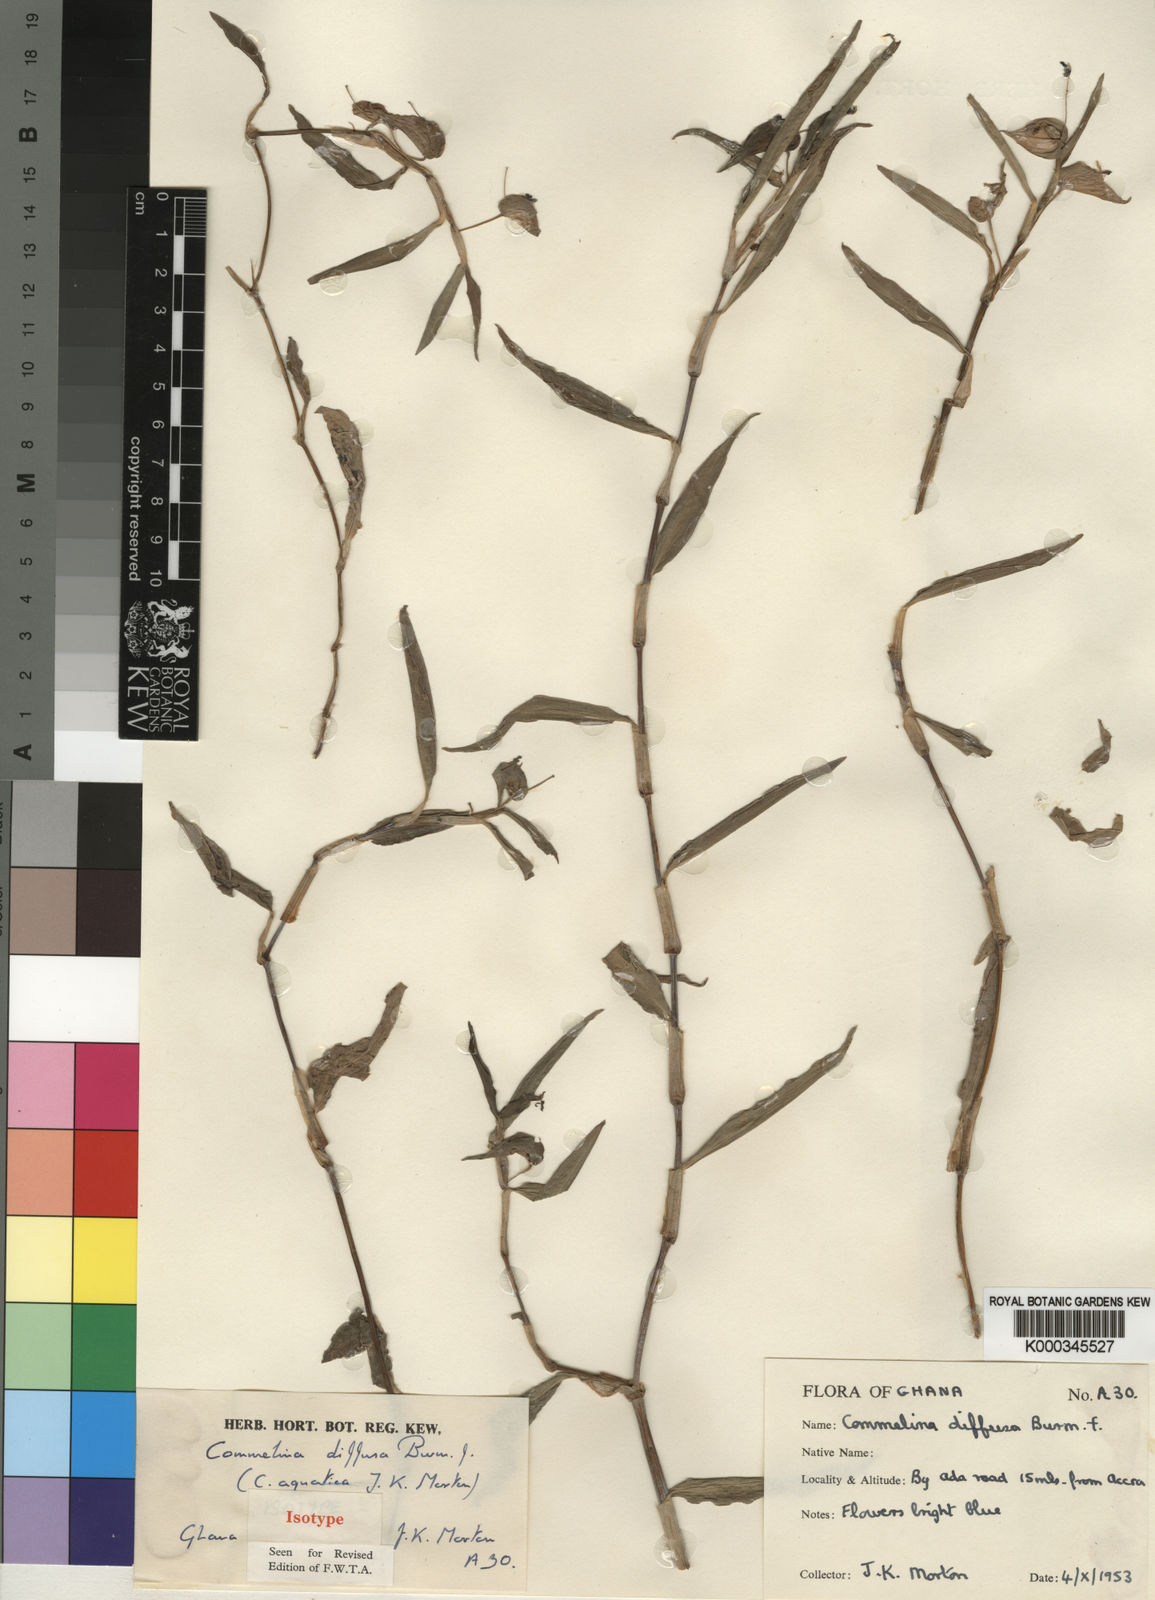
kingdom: Plantae
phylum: Tracheophyta
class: Liliopsida
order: Commelinales
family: Commelinaceae
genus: Commelina
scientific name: Commelina diffusa
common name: Climbing dayflower
